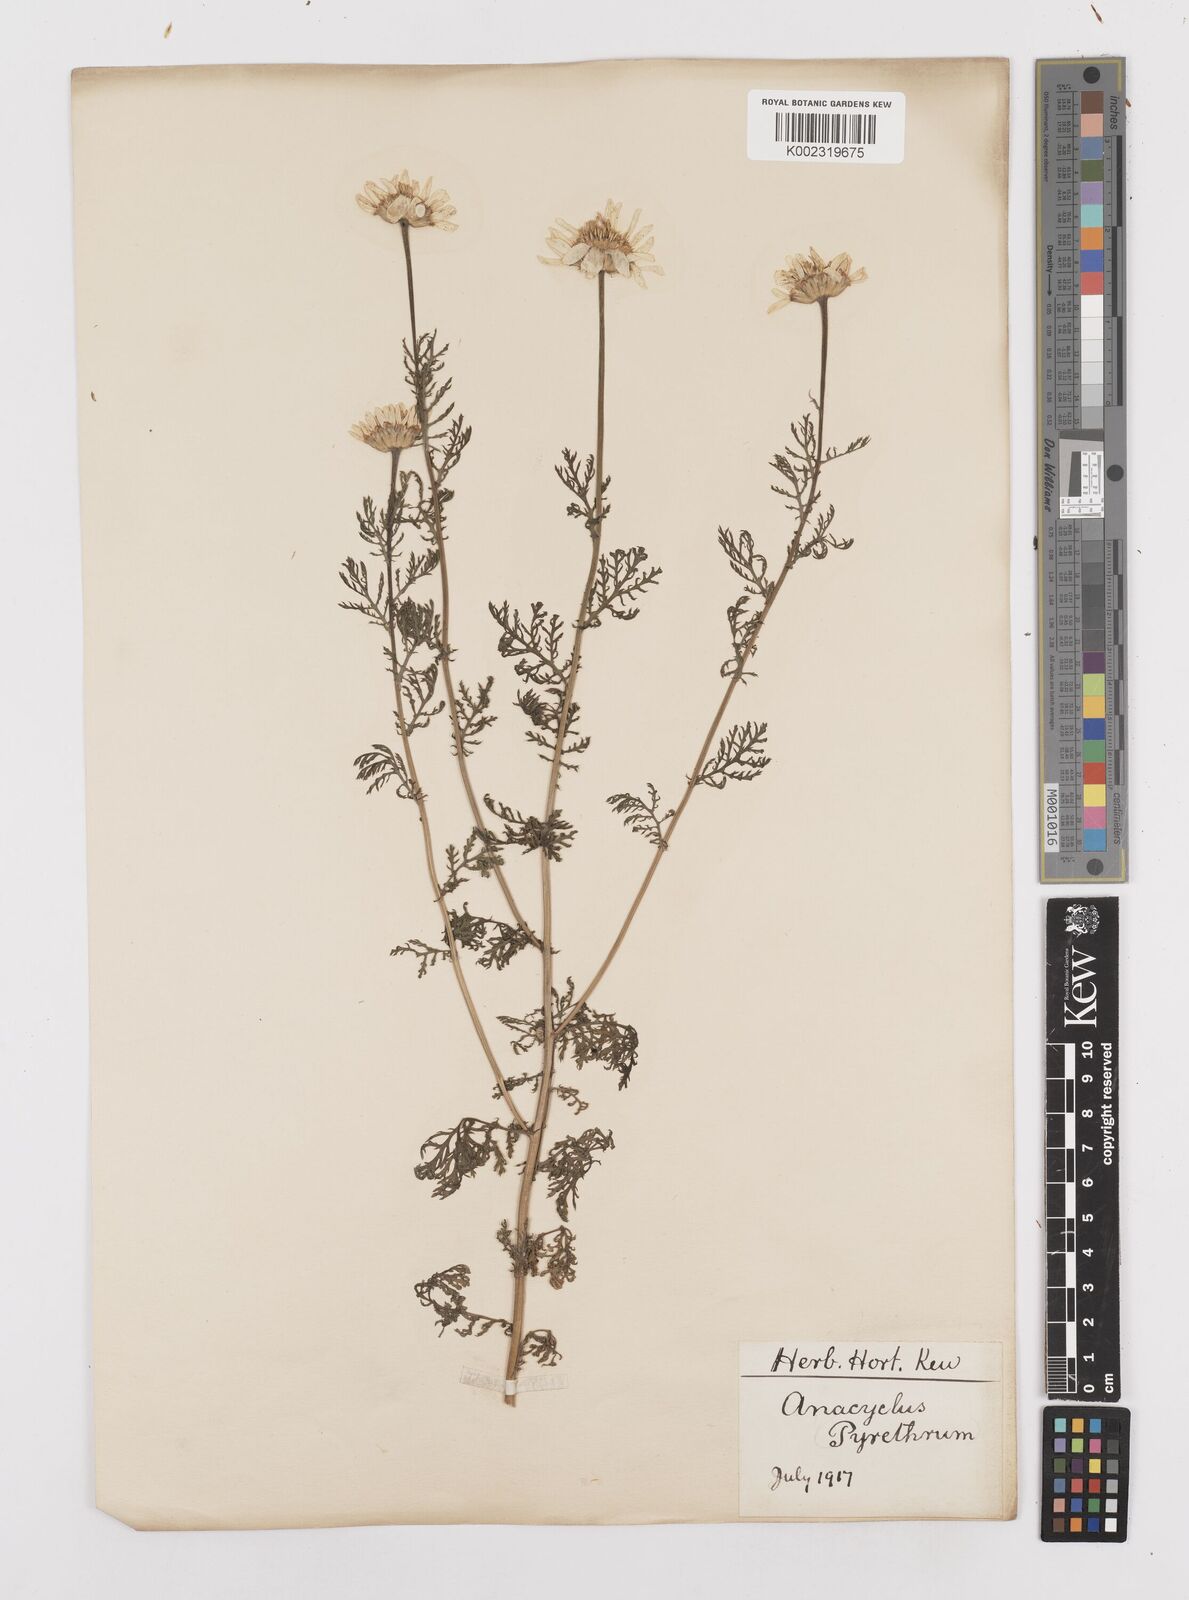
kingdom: Plantae
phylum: Tracheophyta
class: Magnoliopsida
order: Asterales
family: Asteraceae
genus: Anacyclus
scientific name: Anacyclus pyrethrum
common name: Mt. atlas daisy
